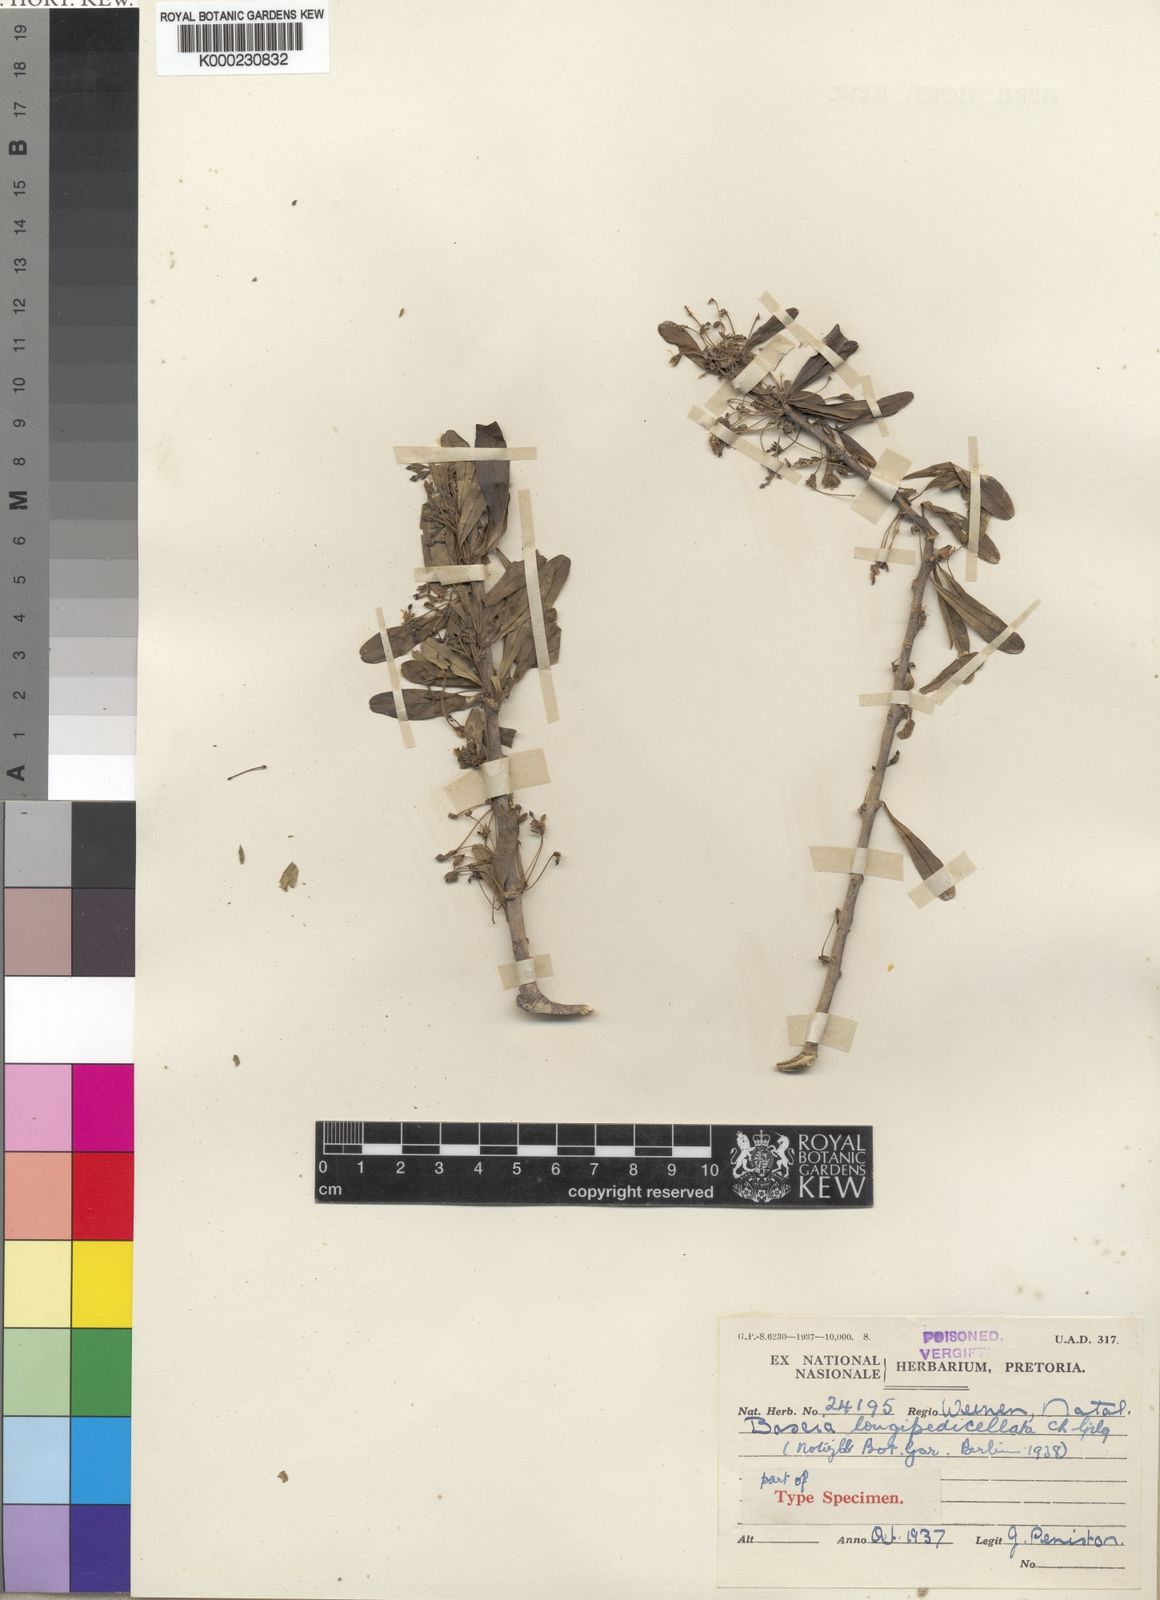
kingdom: Plantae
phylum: Tracheophyta
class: Magnoliopsida
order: Brassicales
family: Capparaceae
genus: Boscia
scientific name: Boscia foetida
